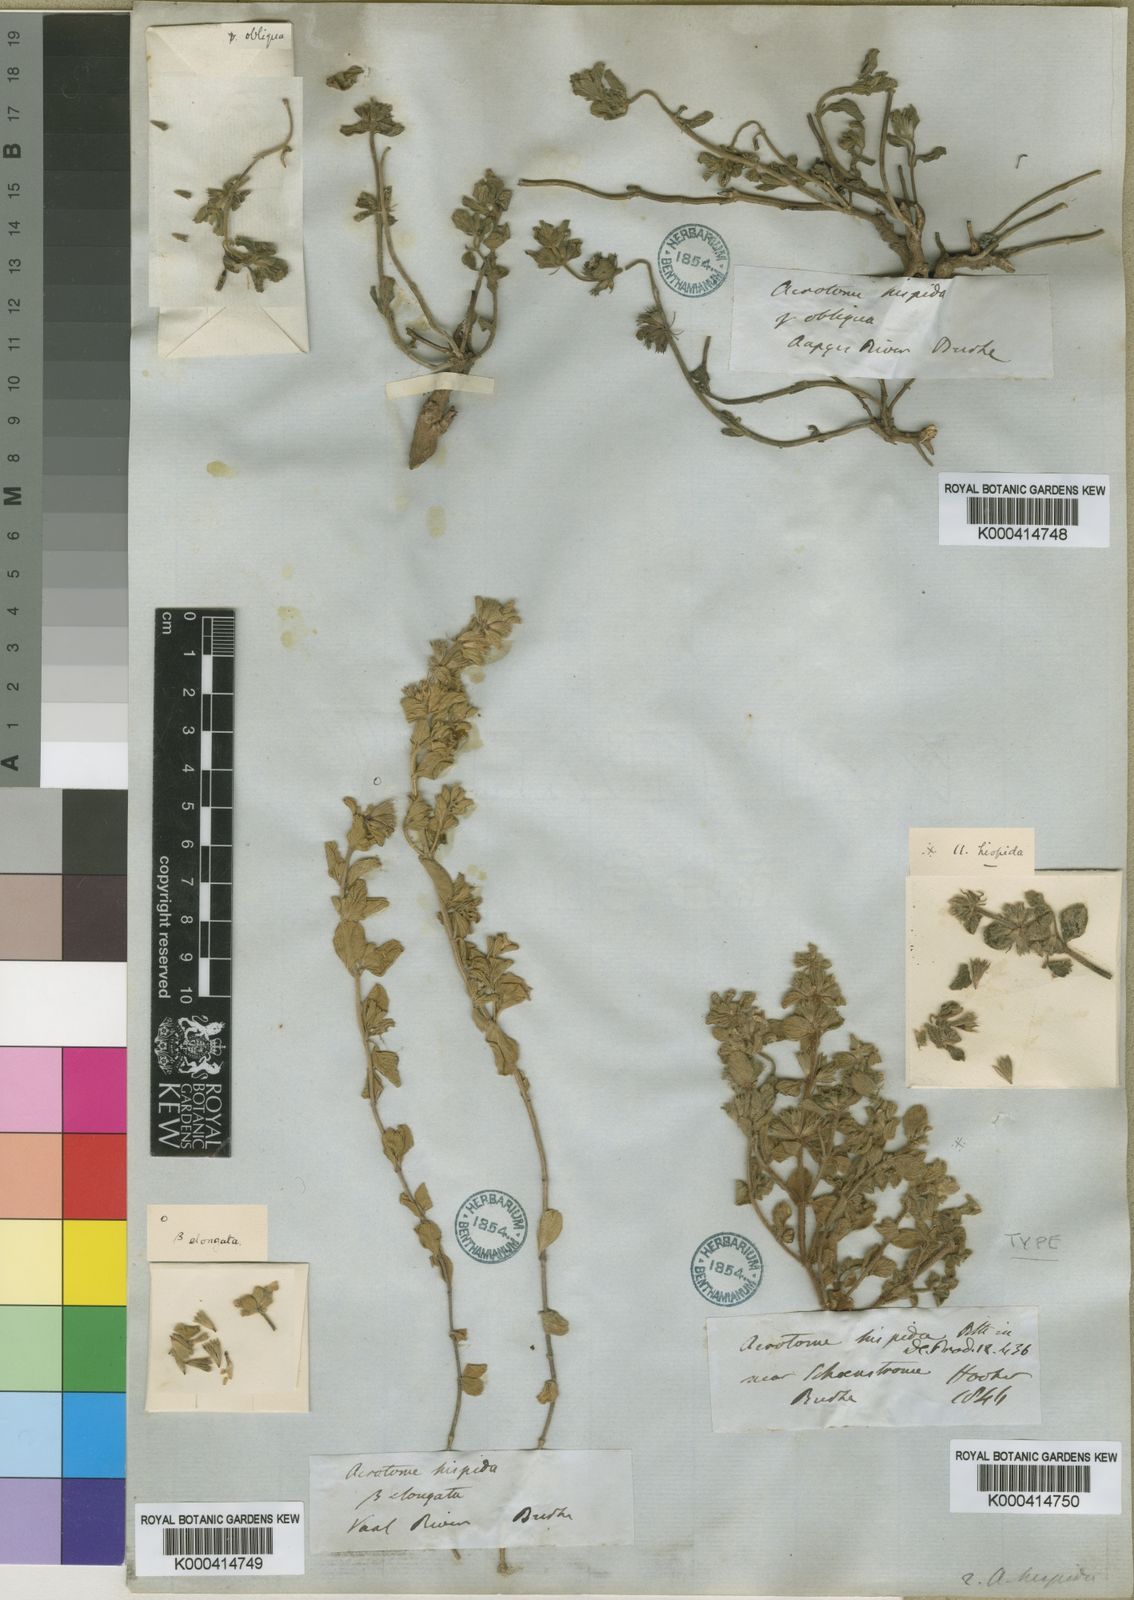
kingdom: Plantae
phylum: Tracheophyta
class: Magnoliopsida
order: Lamiales
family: Lamiaceae
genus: Acrotome
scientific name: Acrotome hispida
